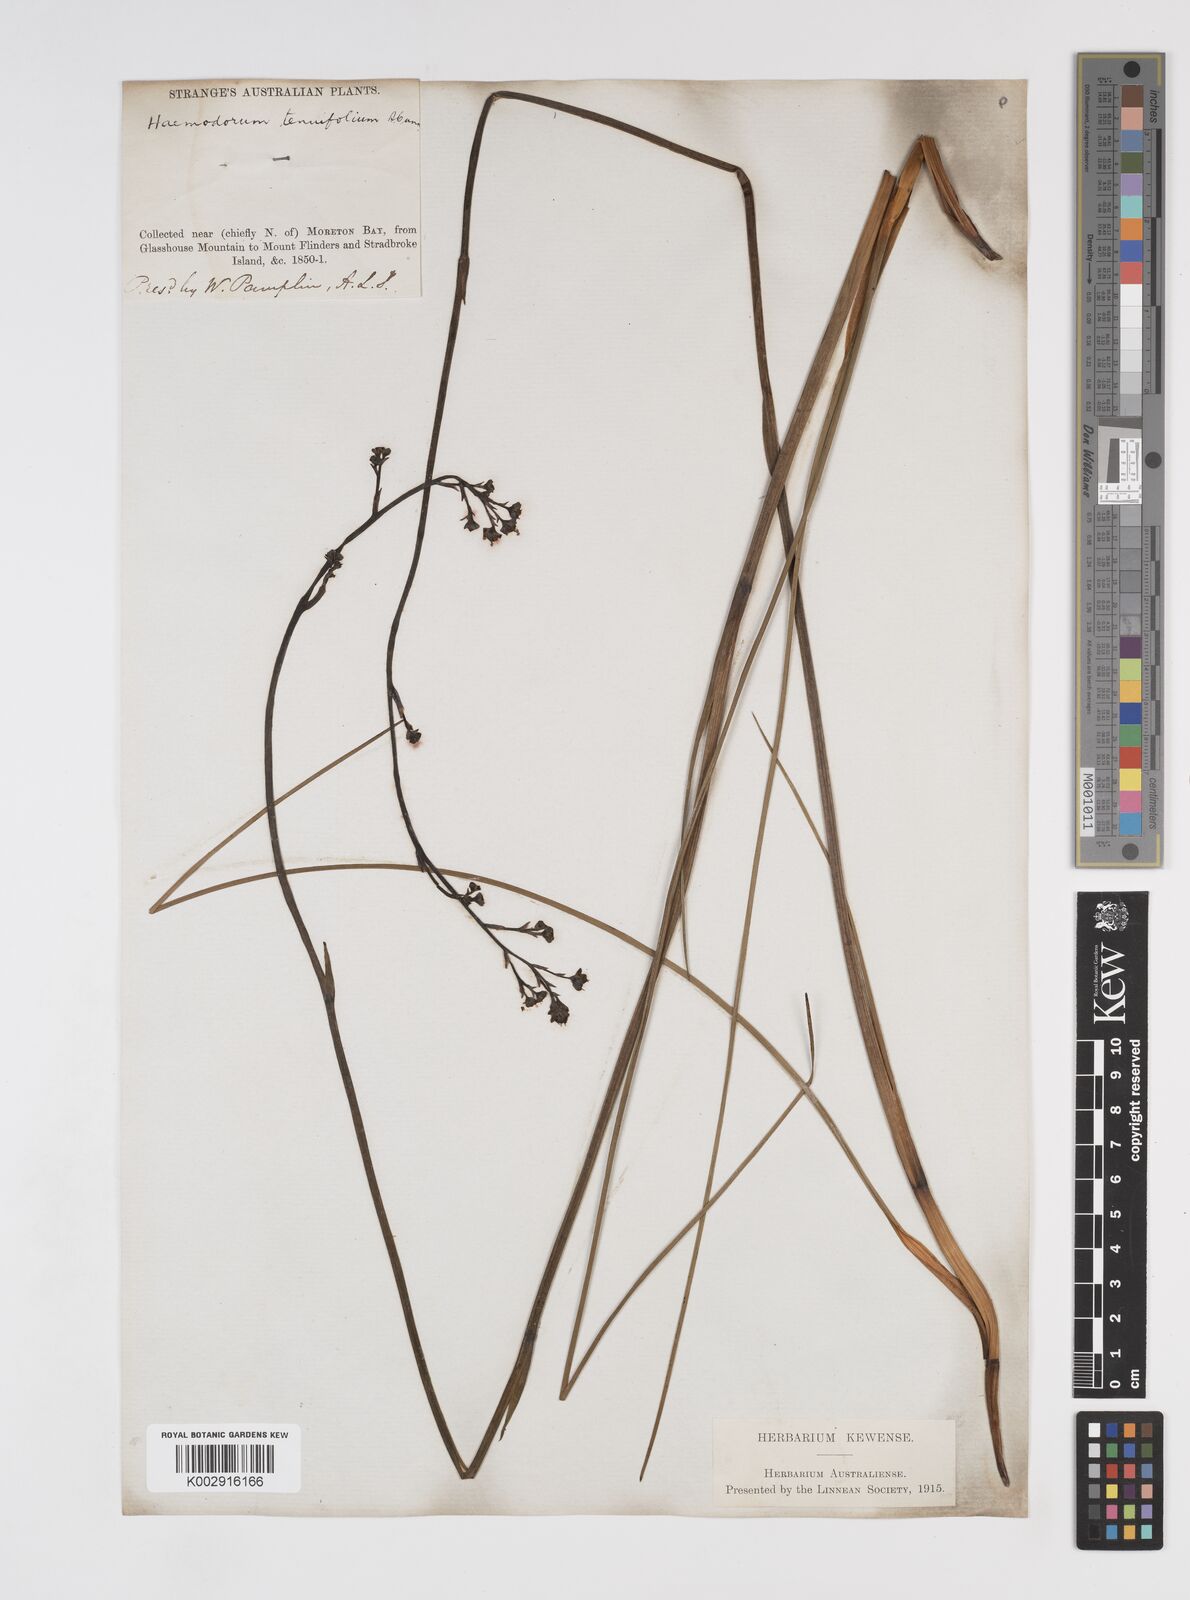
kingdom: Plantae
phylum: Tracheophyta
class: Liliopsida
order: Commelinales
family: Haemodoraceae
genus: Haemodorum
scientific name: Haemodorum tenuifolium
